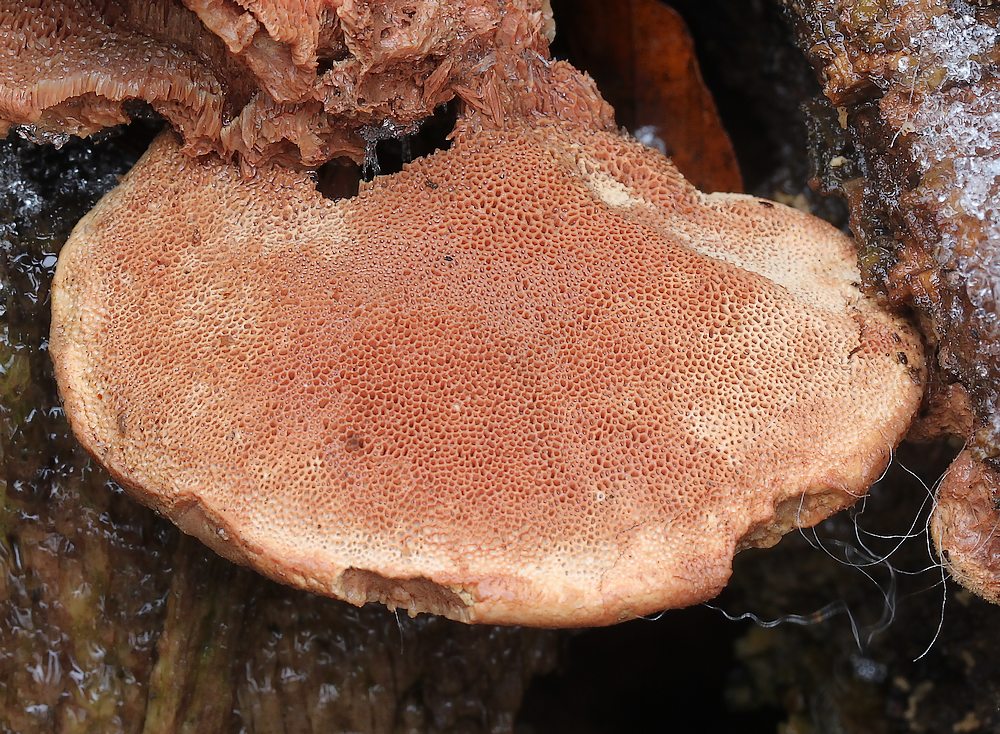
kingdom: Fungi
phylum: Basidiomycota
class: Agaricomycetes
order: Polyporales
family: Phanerochaetaceae
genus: Hapalopilus
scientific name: Hapalopilus rutilans
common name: rødlig okkerporesvamp
